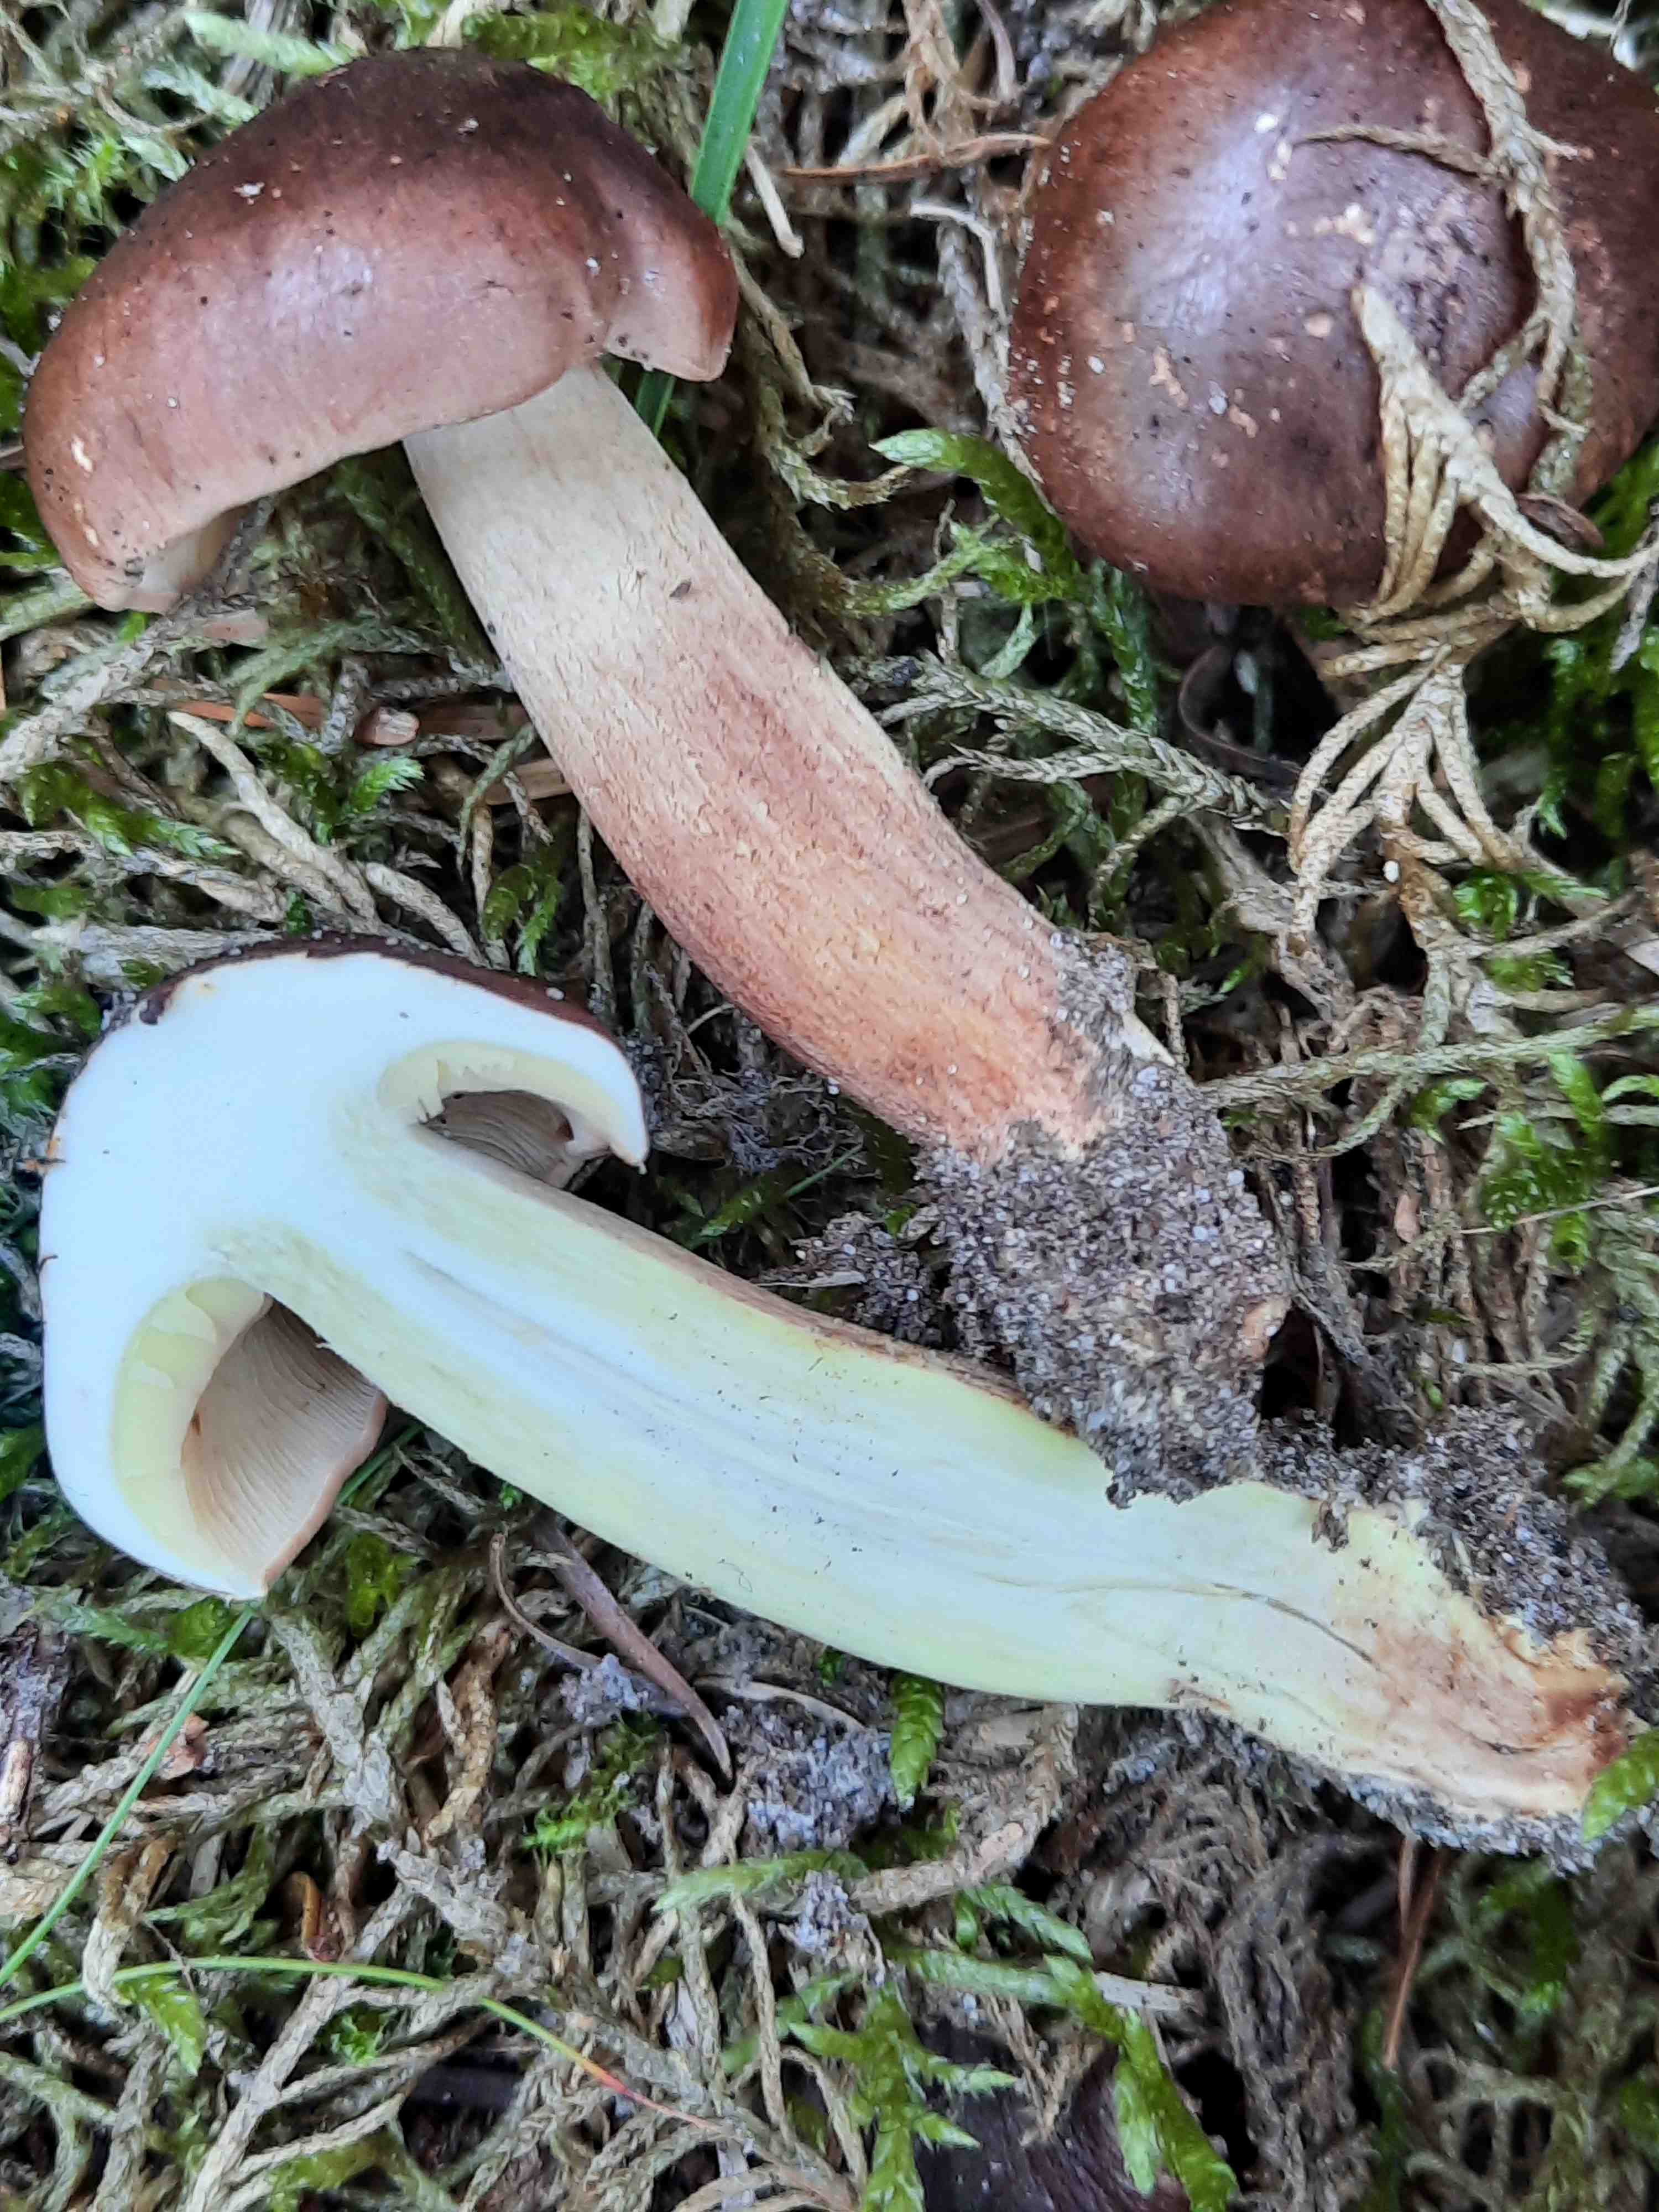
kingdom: Fungi
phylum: Basidiomycota
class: Agaricomycetes
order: Agaricales
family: Tricholomataceae
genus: Tricholoma
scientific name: Tricholoma fulvum
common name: birke-ridderhat
